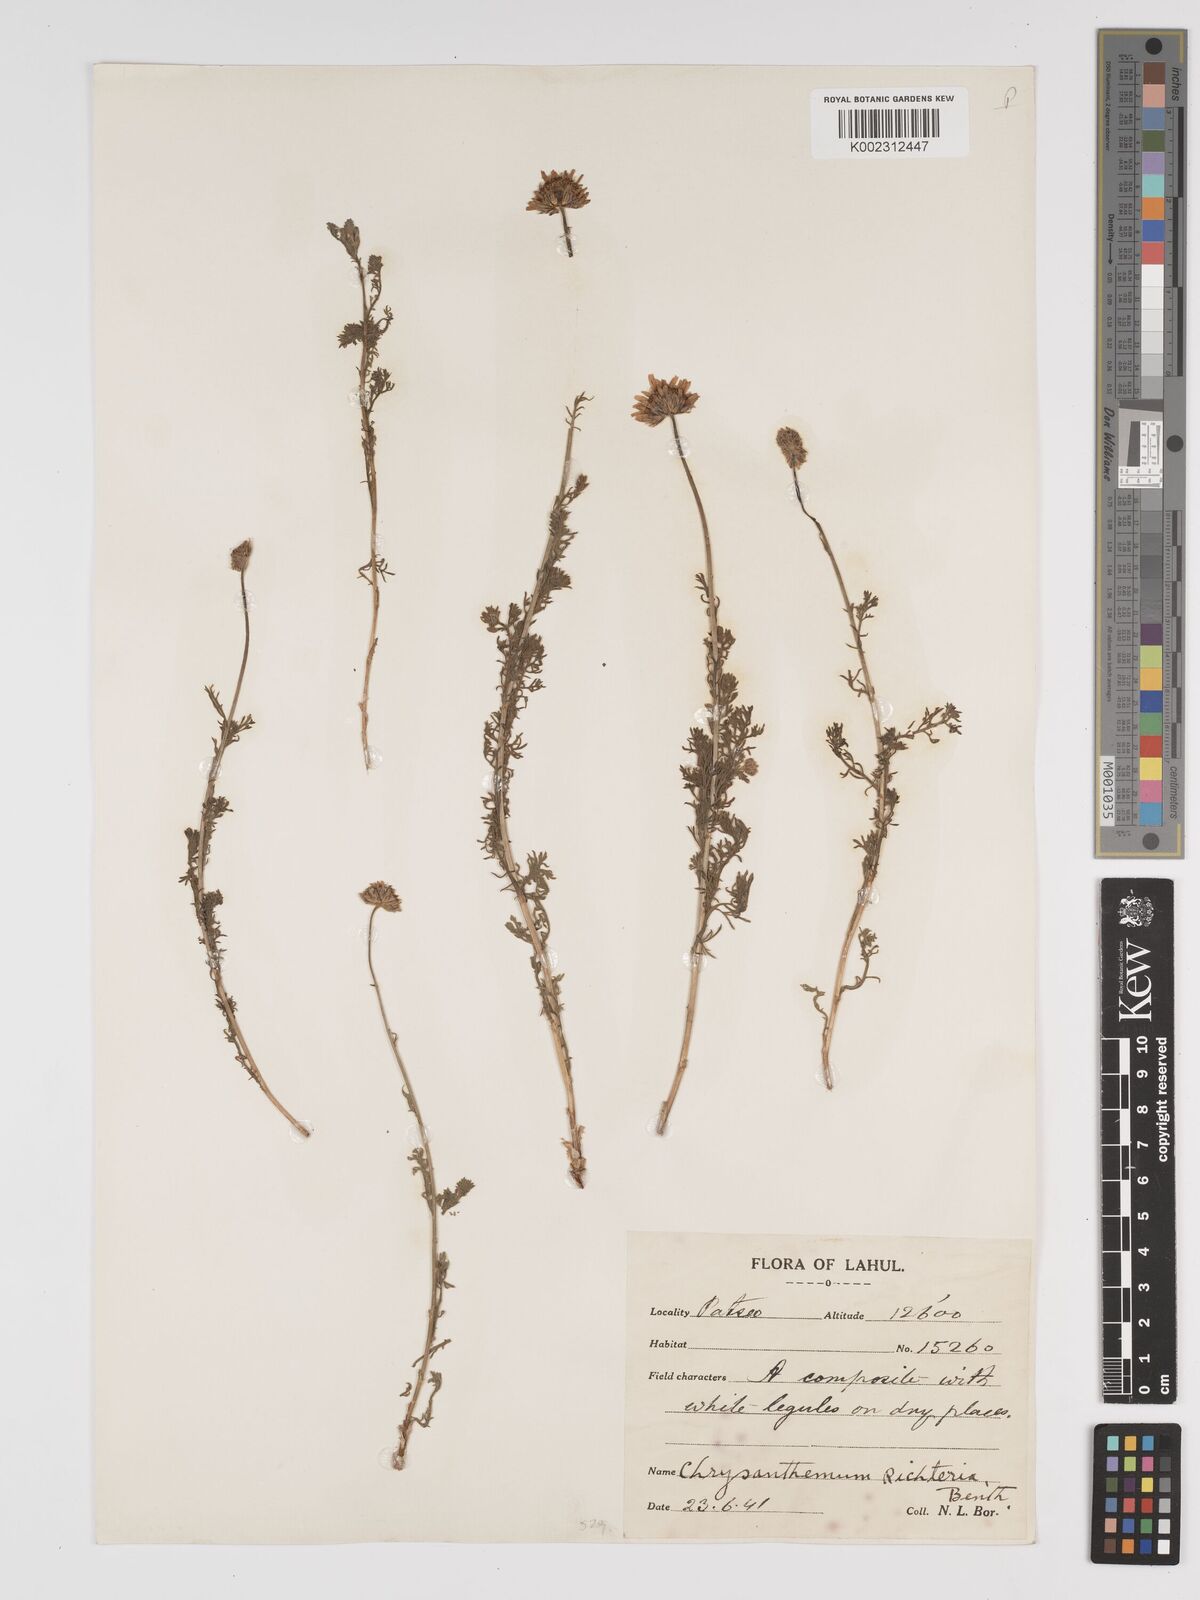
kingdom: Plantae
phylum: Tracheophyta
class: Magnoliopsida
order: Asterales
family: Asteraceae
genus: Tanacetum
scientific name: Tanacetum stoliczkae
